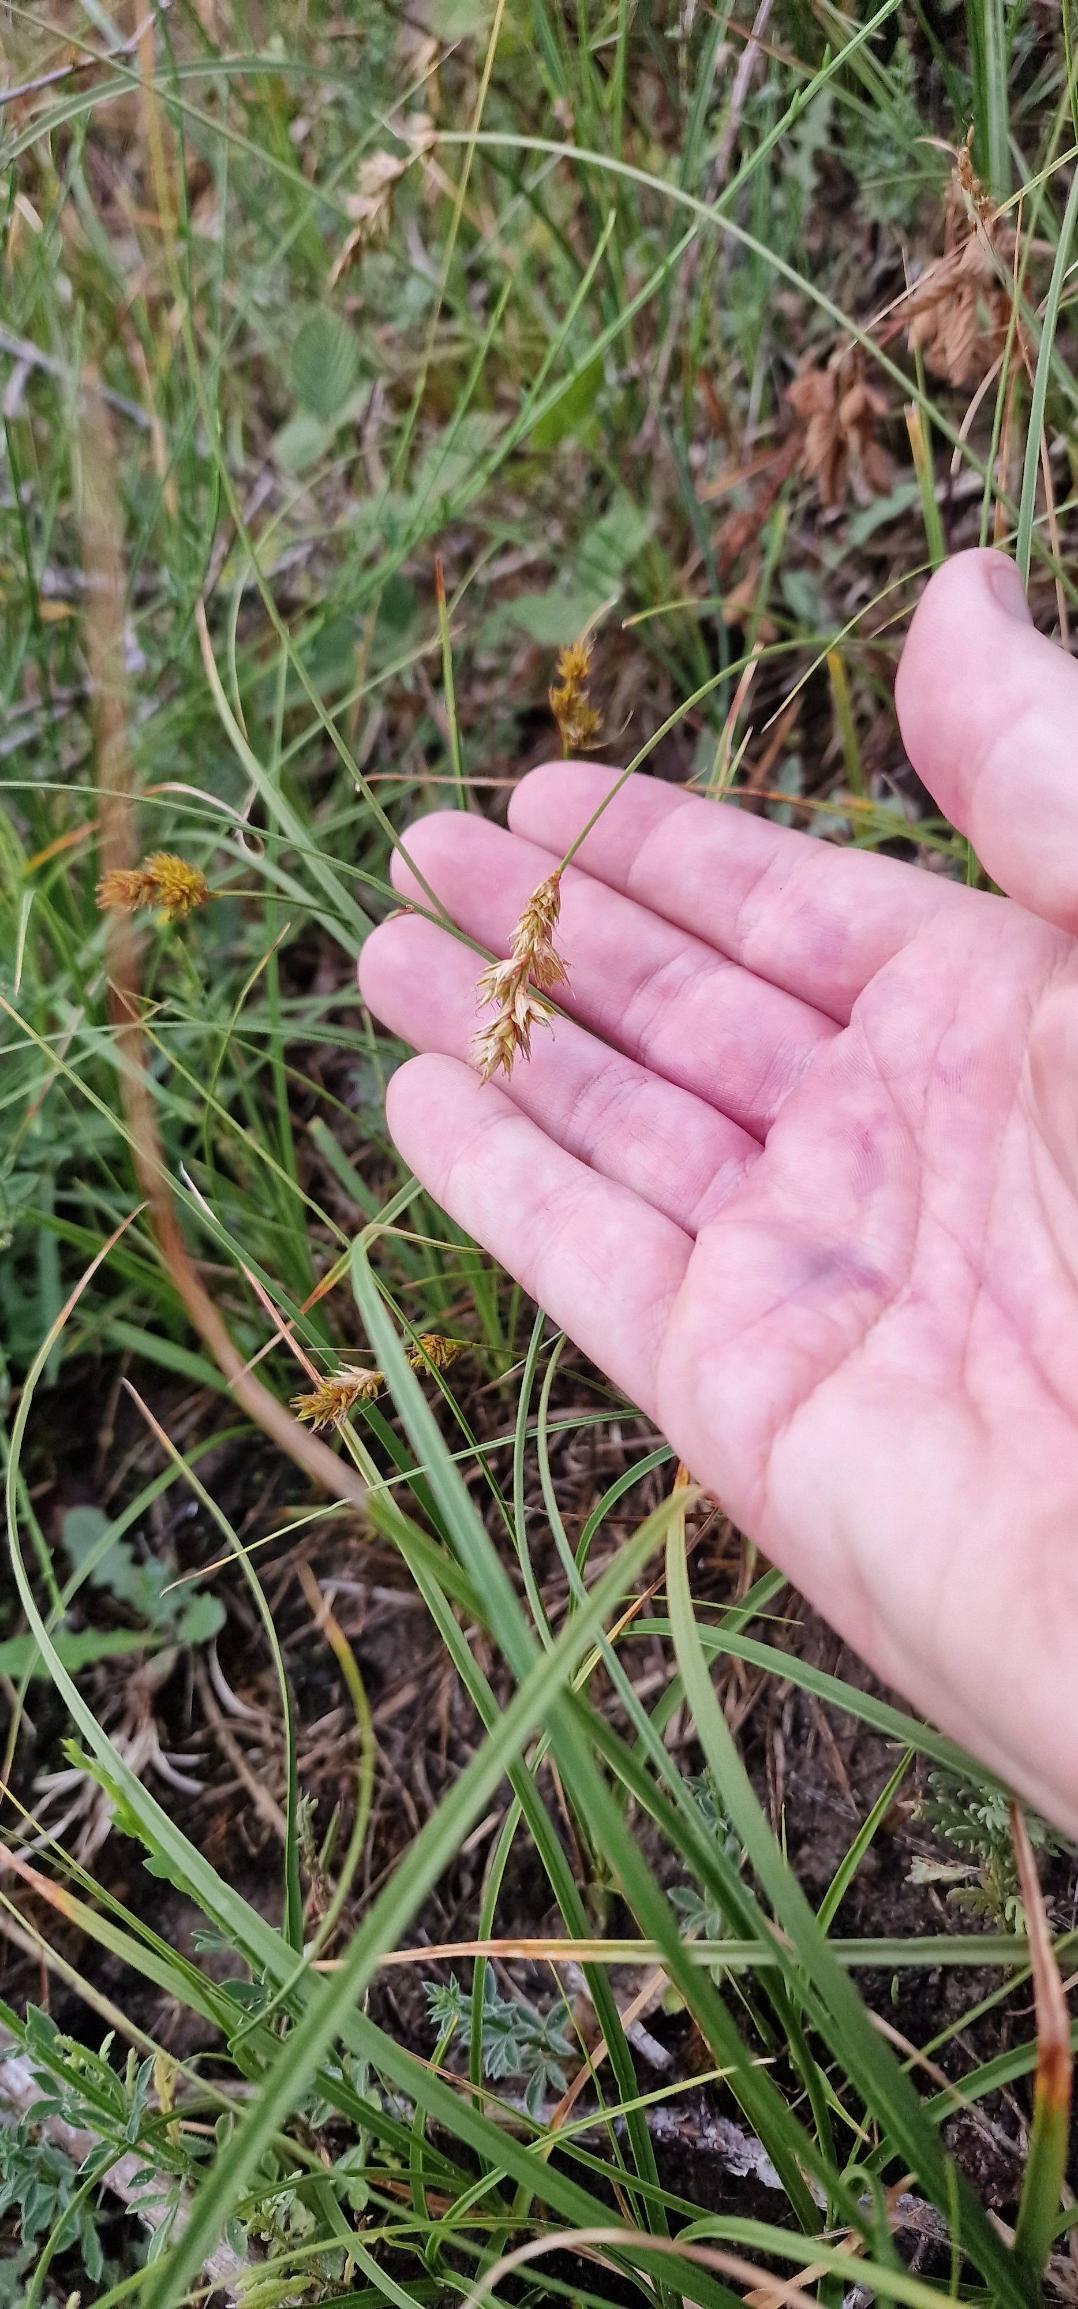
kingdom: Plantae
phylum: Tracheophyta
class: Liliopsida
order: Poales
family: Cyperaceae
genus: Carex
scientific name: Carex arenaria
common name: Sand-star
